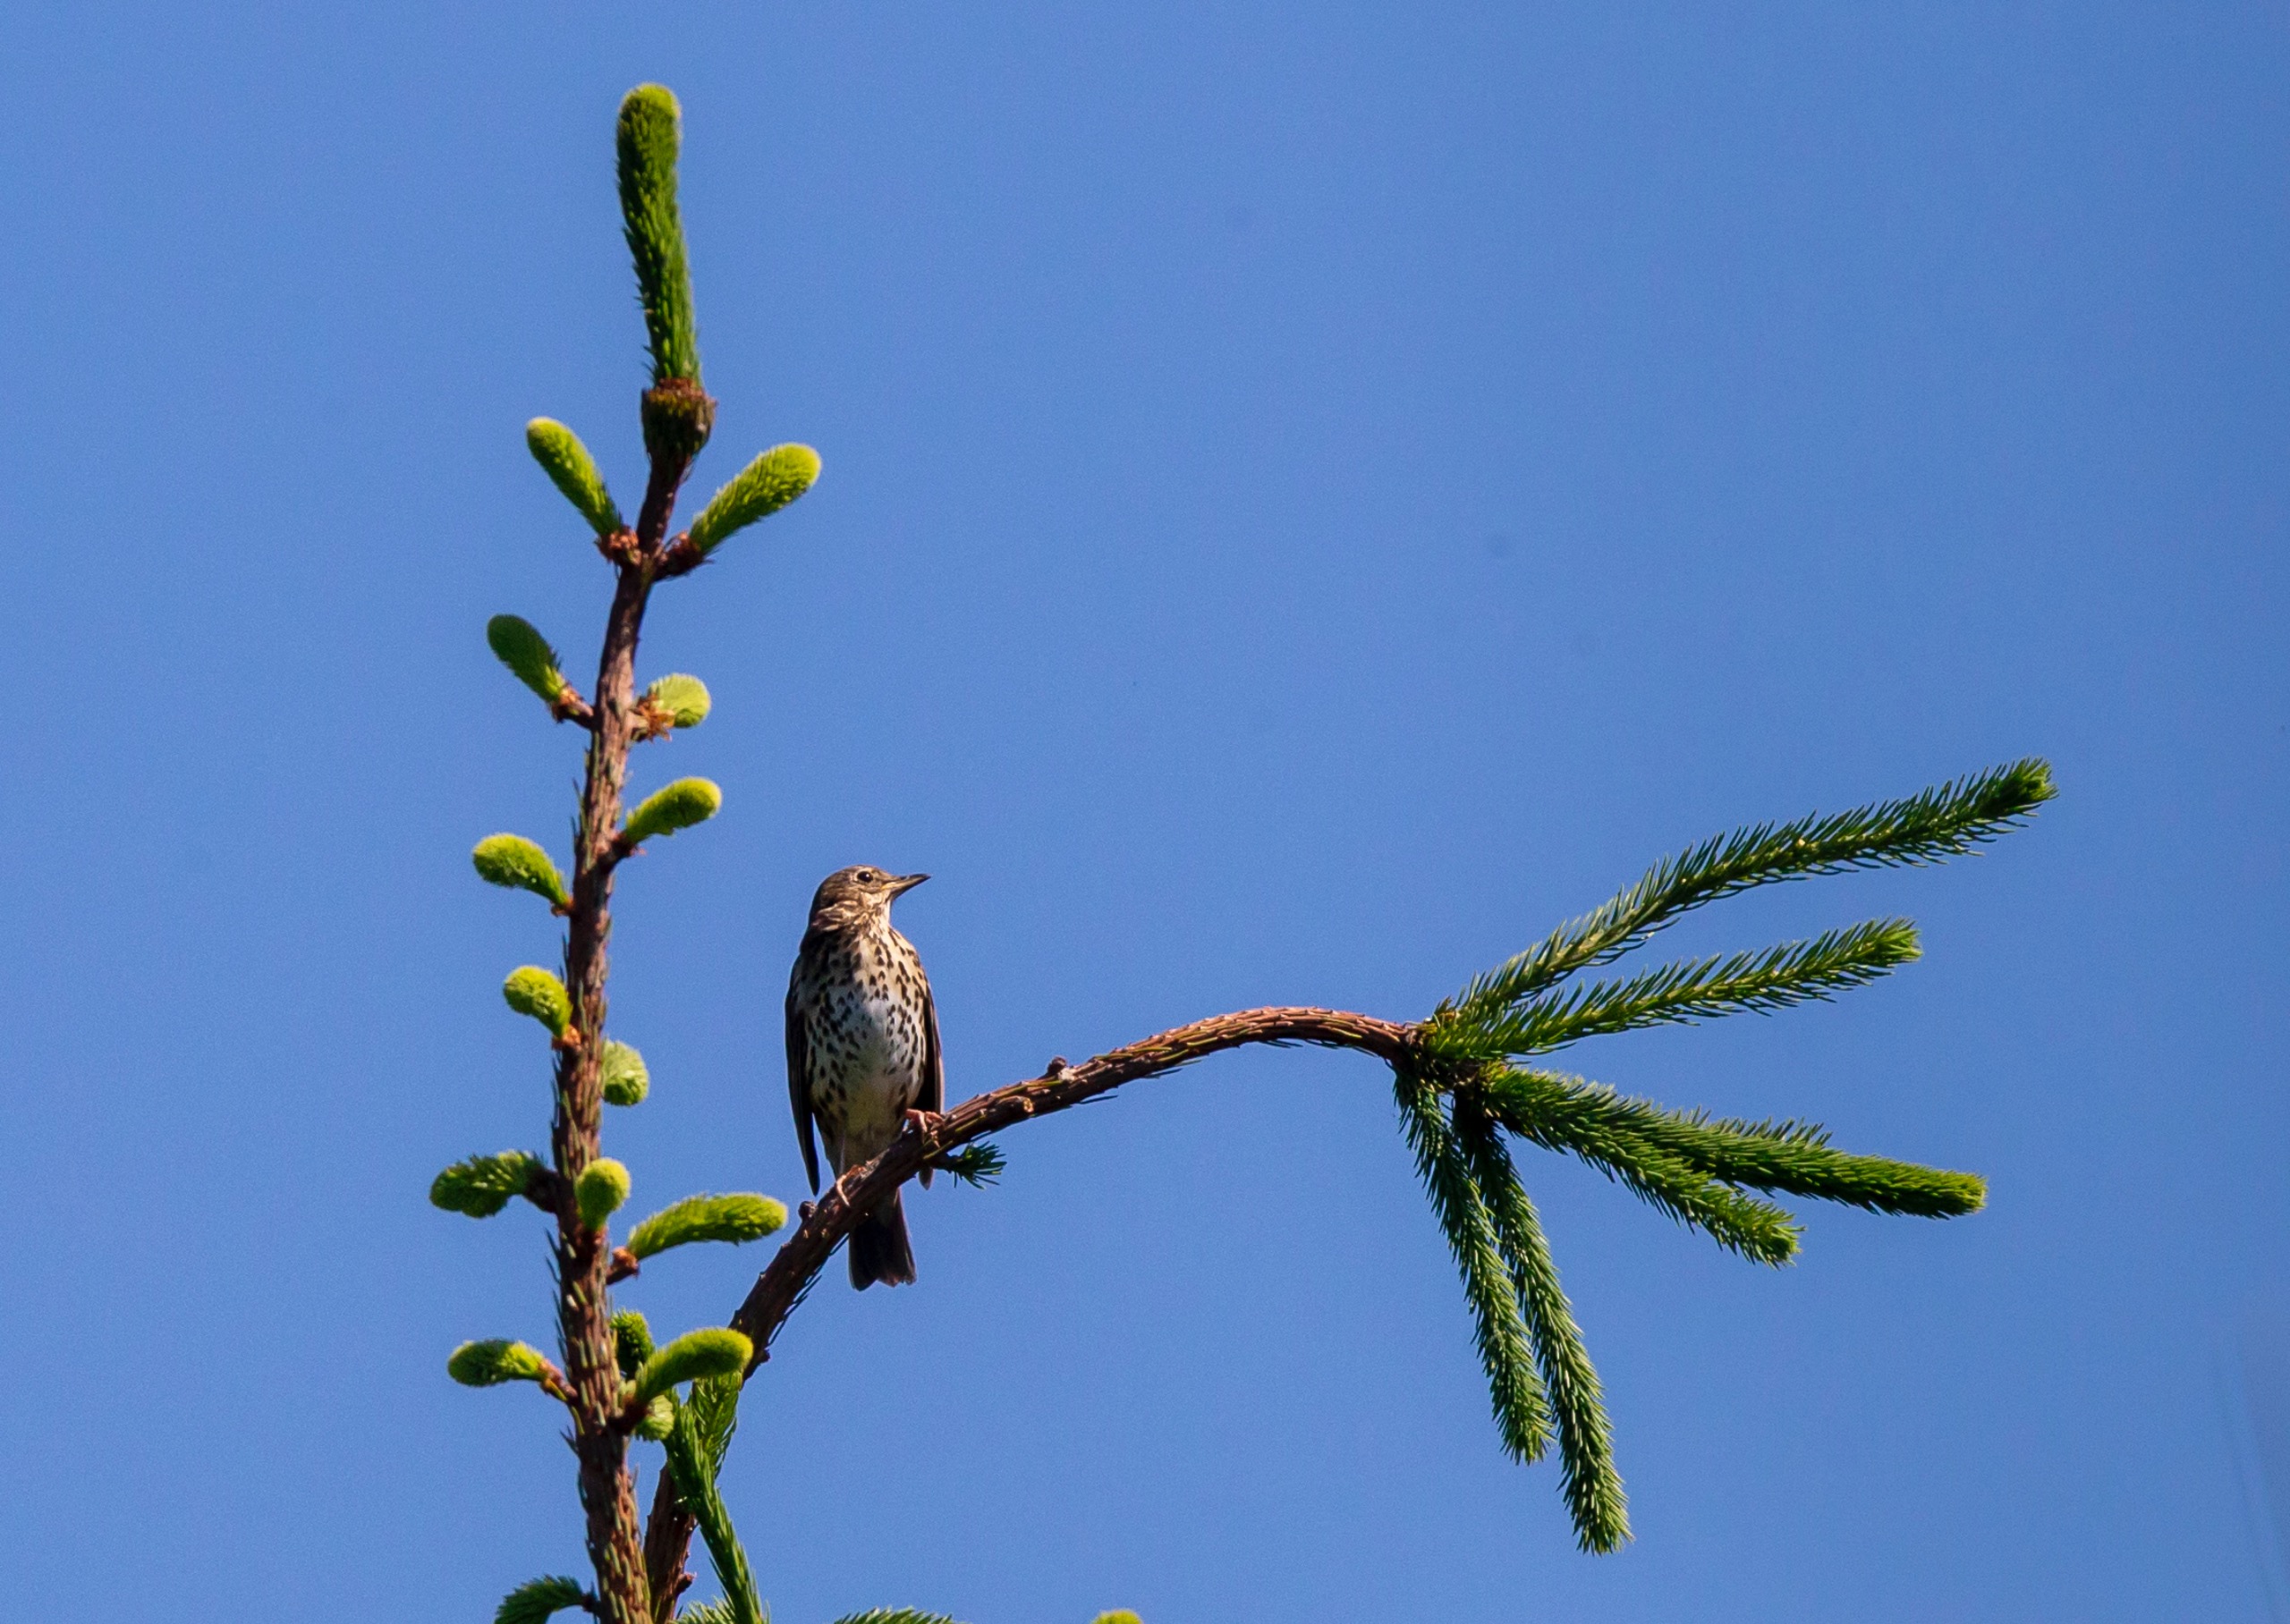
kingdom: Animalia
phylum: Chordata
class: Aves
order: Passeriformes
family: Turdidae
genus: Turdus
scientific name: Turdus philomelos
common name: Sangdrossel
